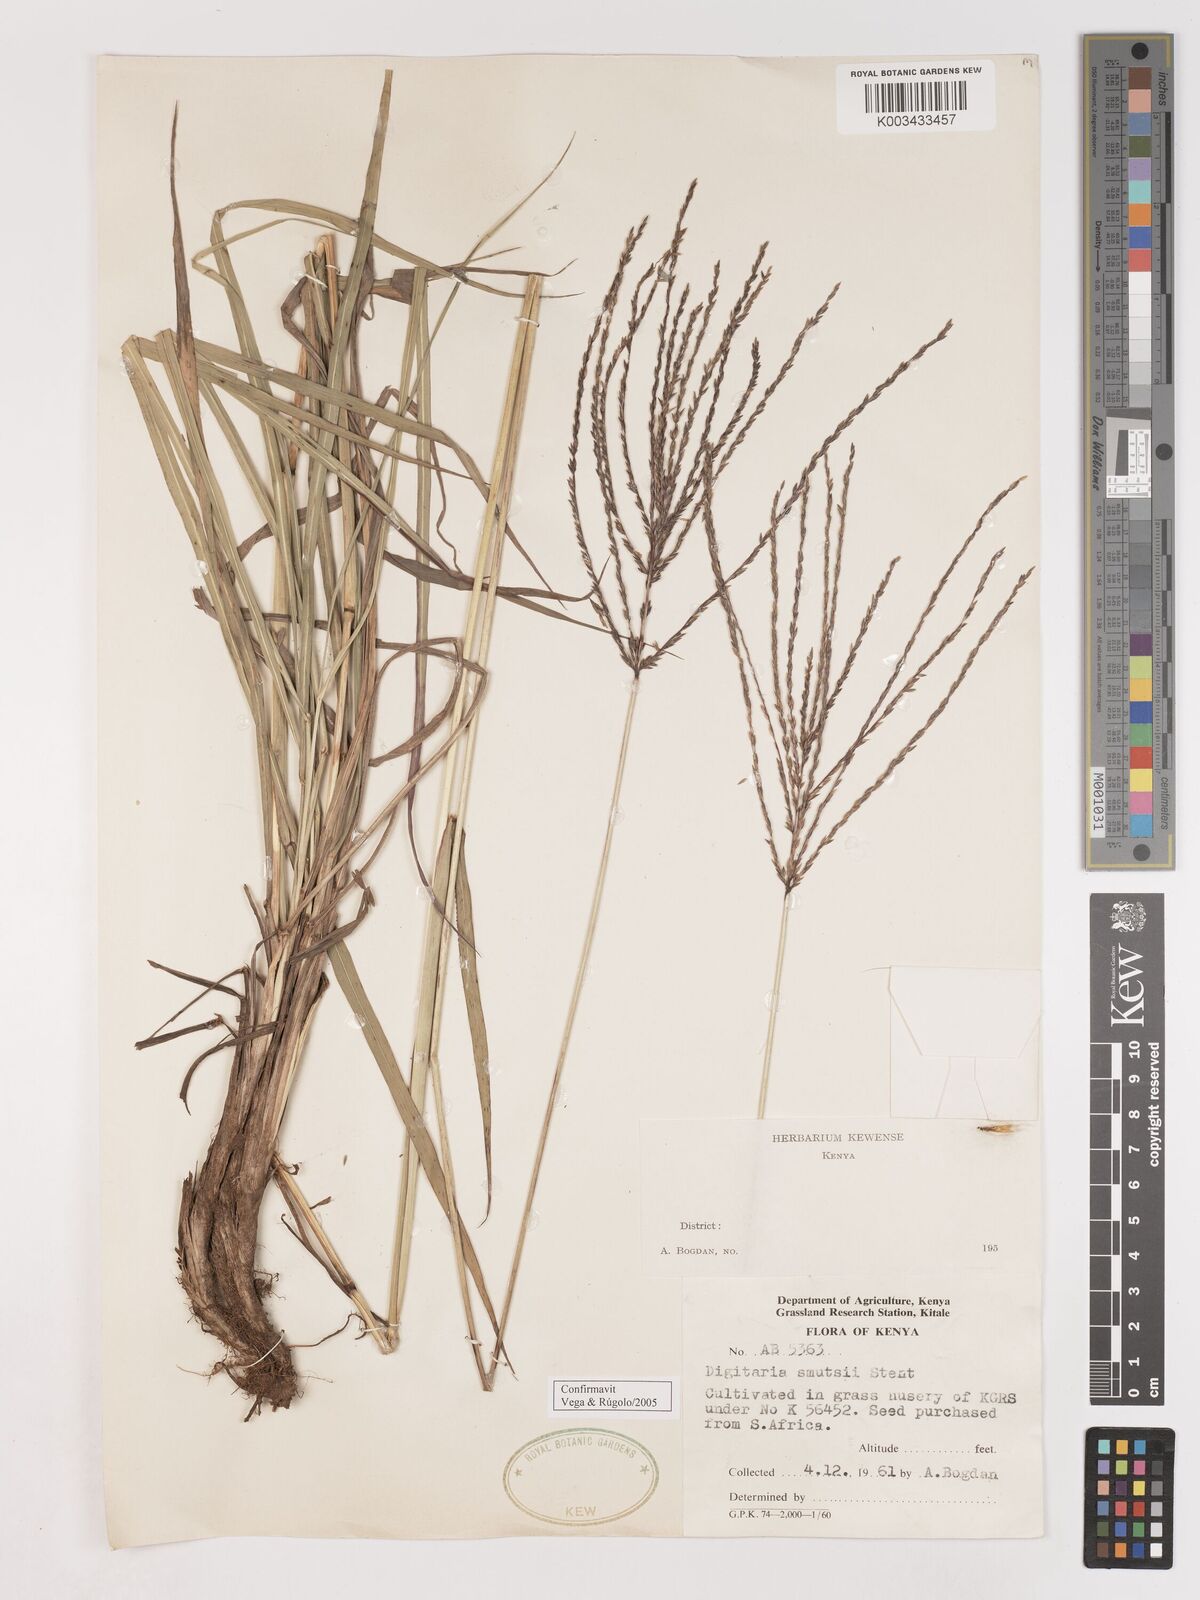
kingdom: Plantae
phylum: Tracheophyta
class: Liliopsida
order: Poales
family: Poaceae
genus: Digitaria
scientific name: Digitaria eriantha
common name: Digitgrass
